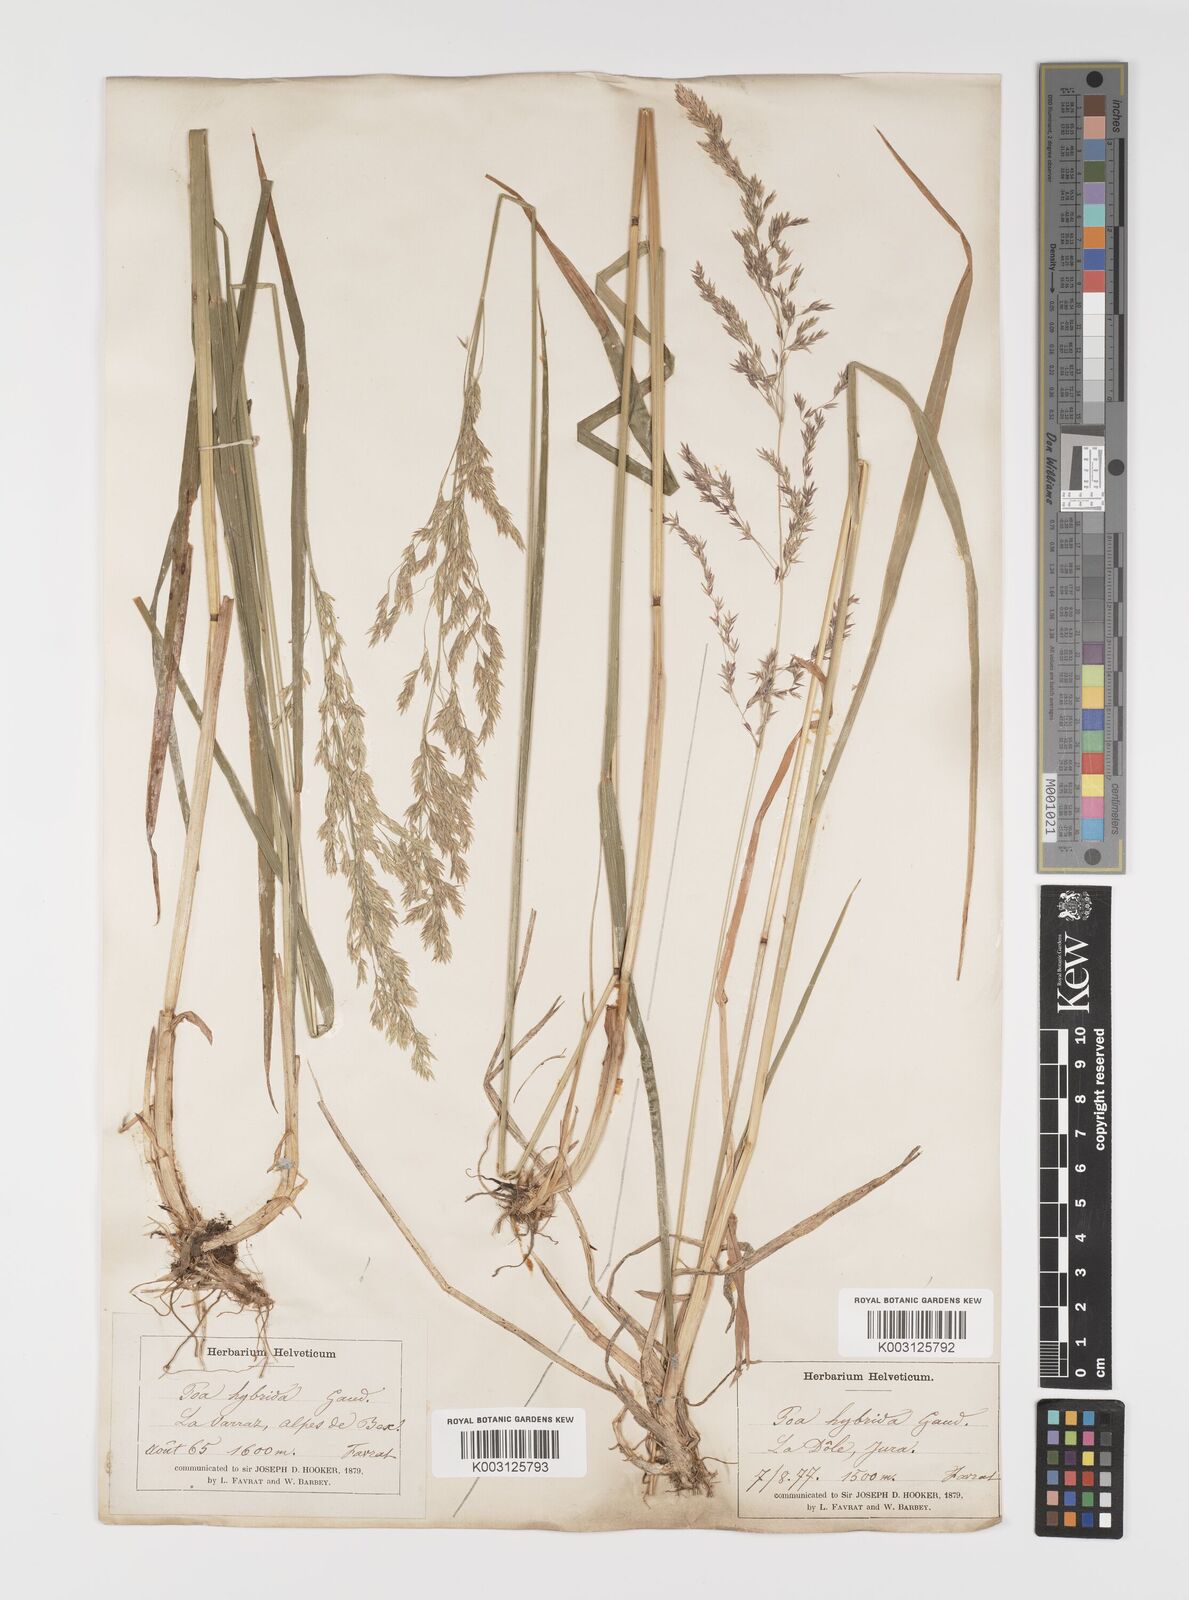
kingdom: Plantae
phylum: Tracheophyta
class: Liliopsida
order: Poales
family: Poaceae
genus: Poa
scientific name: Poa hybrida
